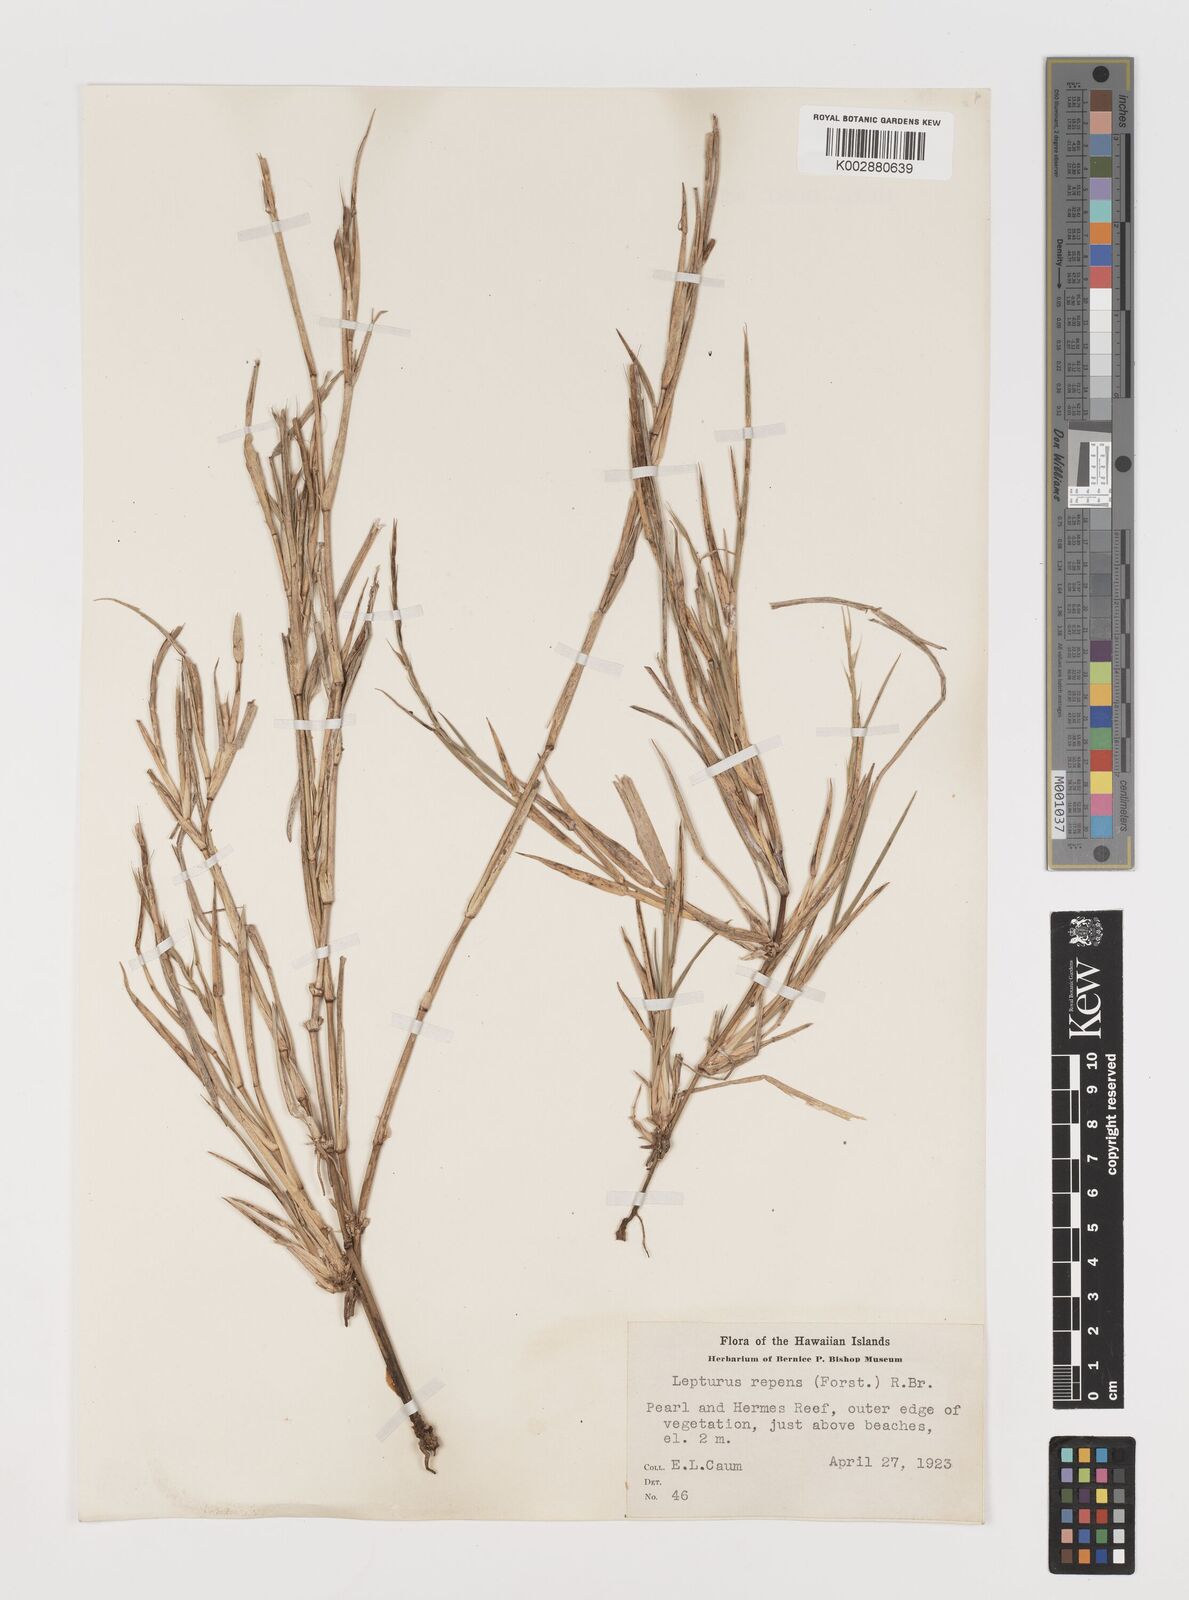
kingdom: Plantae
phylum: Tracheophyta
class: Liliopsida
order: Poales
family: Poaceae
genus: Lepturus
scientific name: Lepturus repens
